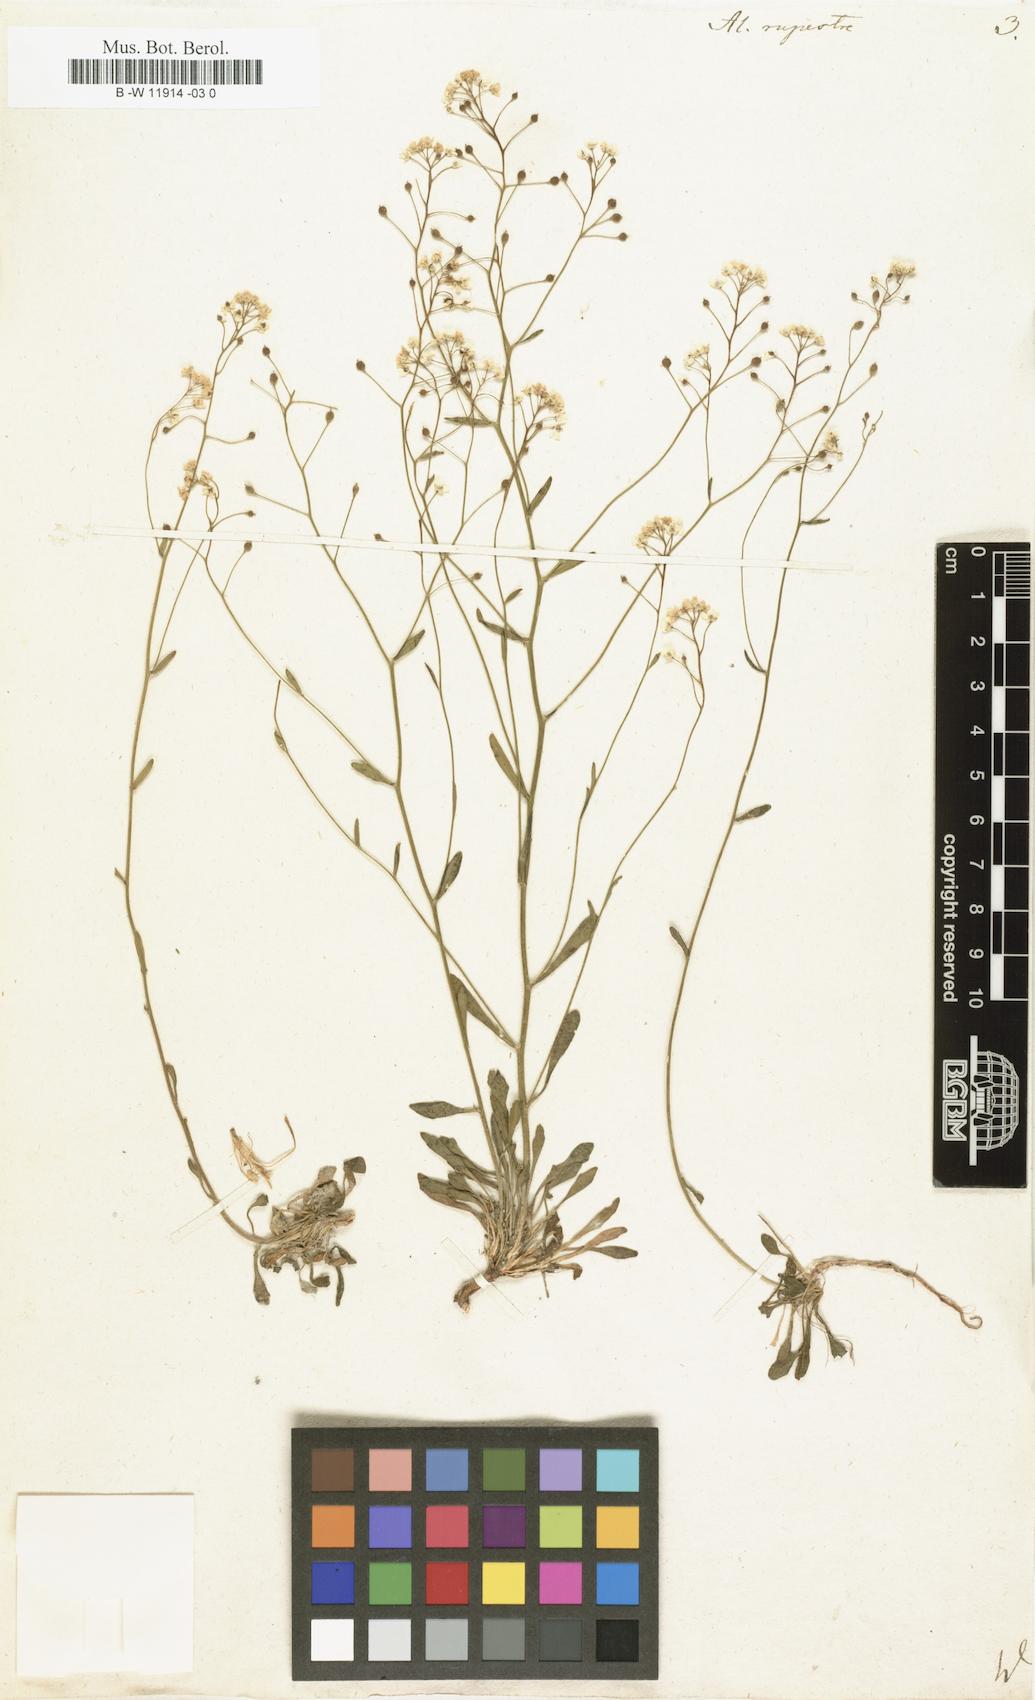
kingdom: Plantae
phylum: Tracheophyta
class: Magnoliopsida
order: Brassicales
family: Brassicaceae
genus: Phyllolepidium
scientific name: Phyllolepidium rupestre
